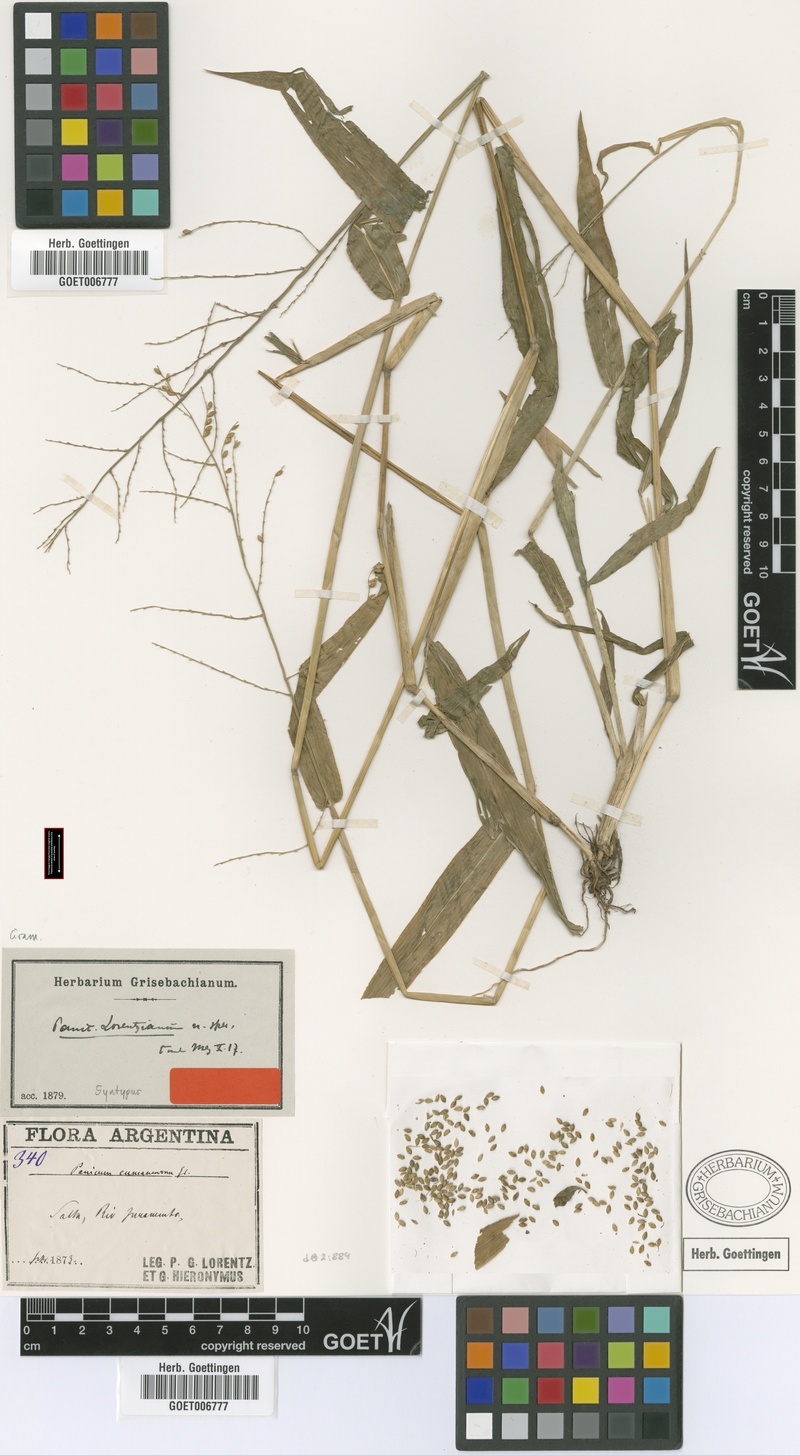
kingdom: Plantae
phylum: Tracheophyta
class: Liliopsida
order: Poales
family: Poaceae
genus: Urochloa
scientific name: Urochloa lorentziana
